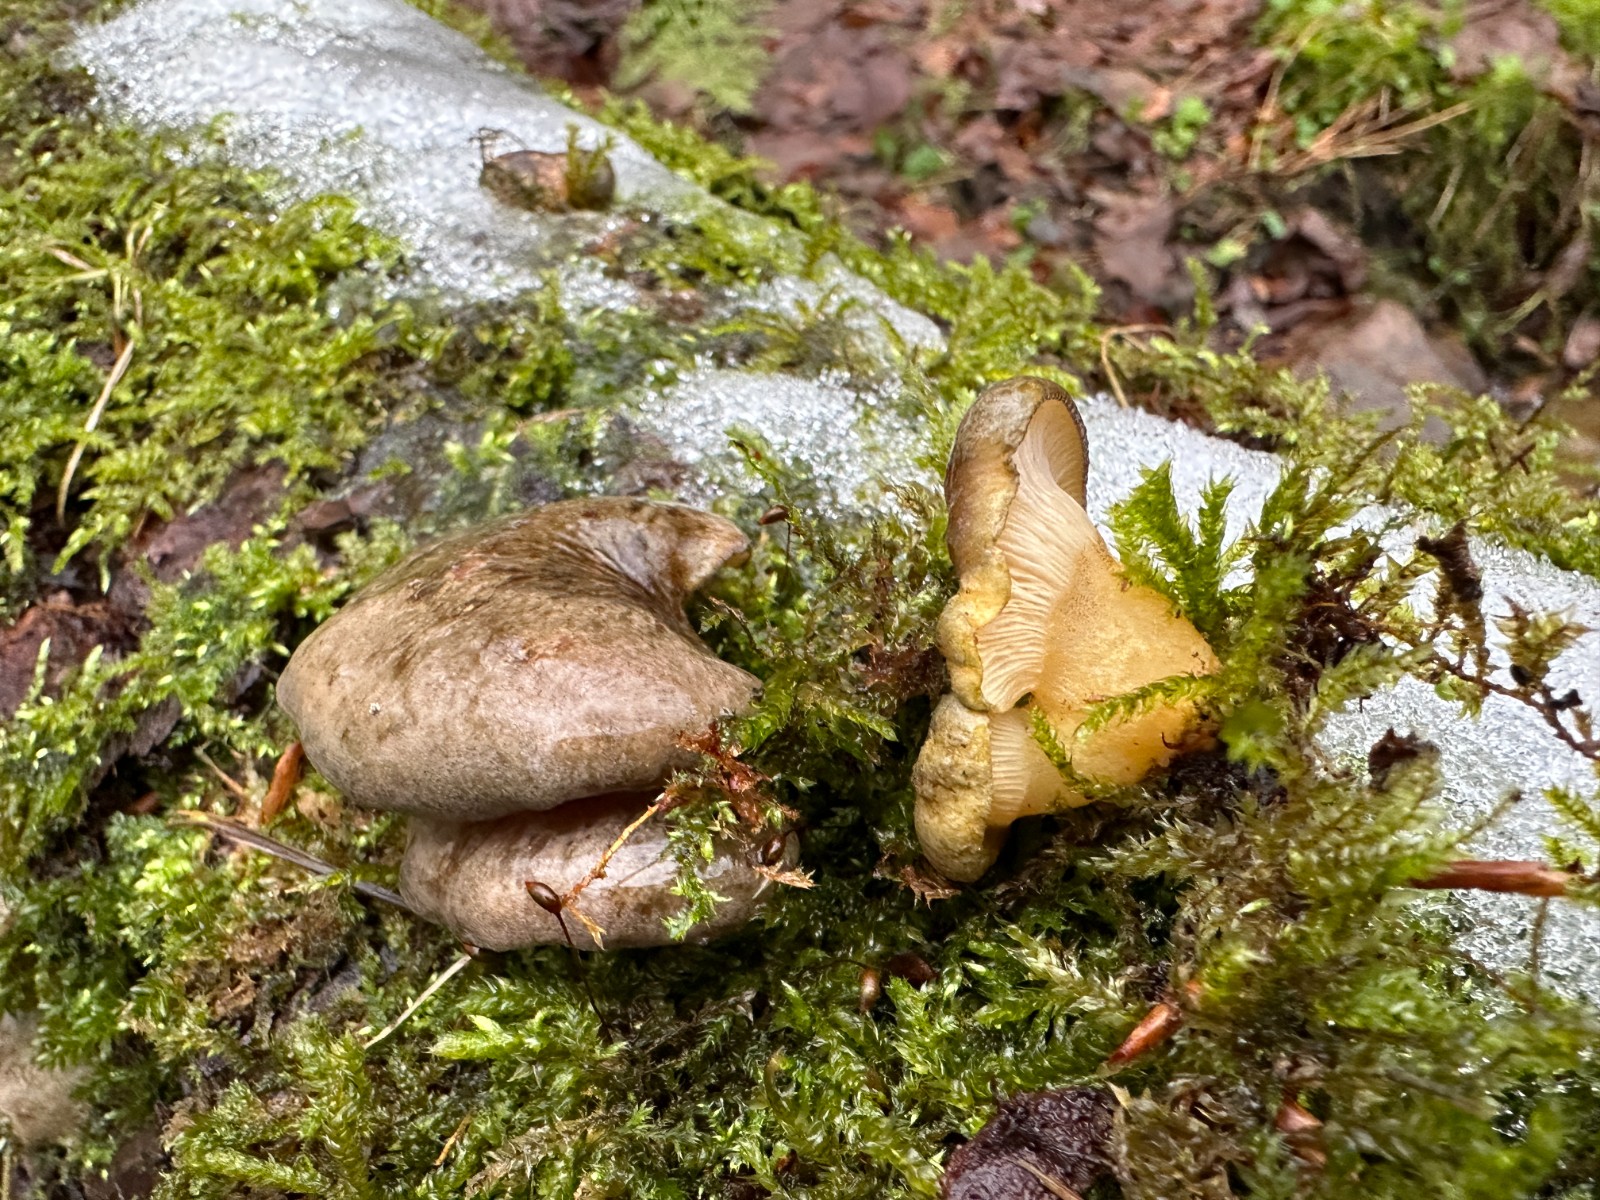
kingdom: Fungi
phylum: Basidiomycota
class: Agaricomycetes
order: Agaricales
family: Sarcomyxaceae
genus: Sarcomyxa
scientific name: Sarcomyxa serotina
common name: gummihat
